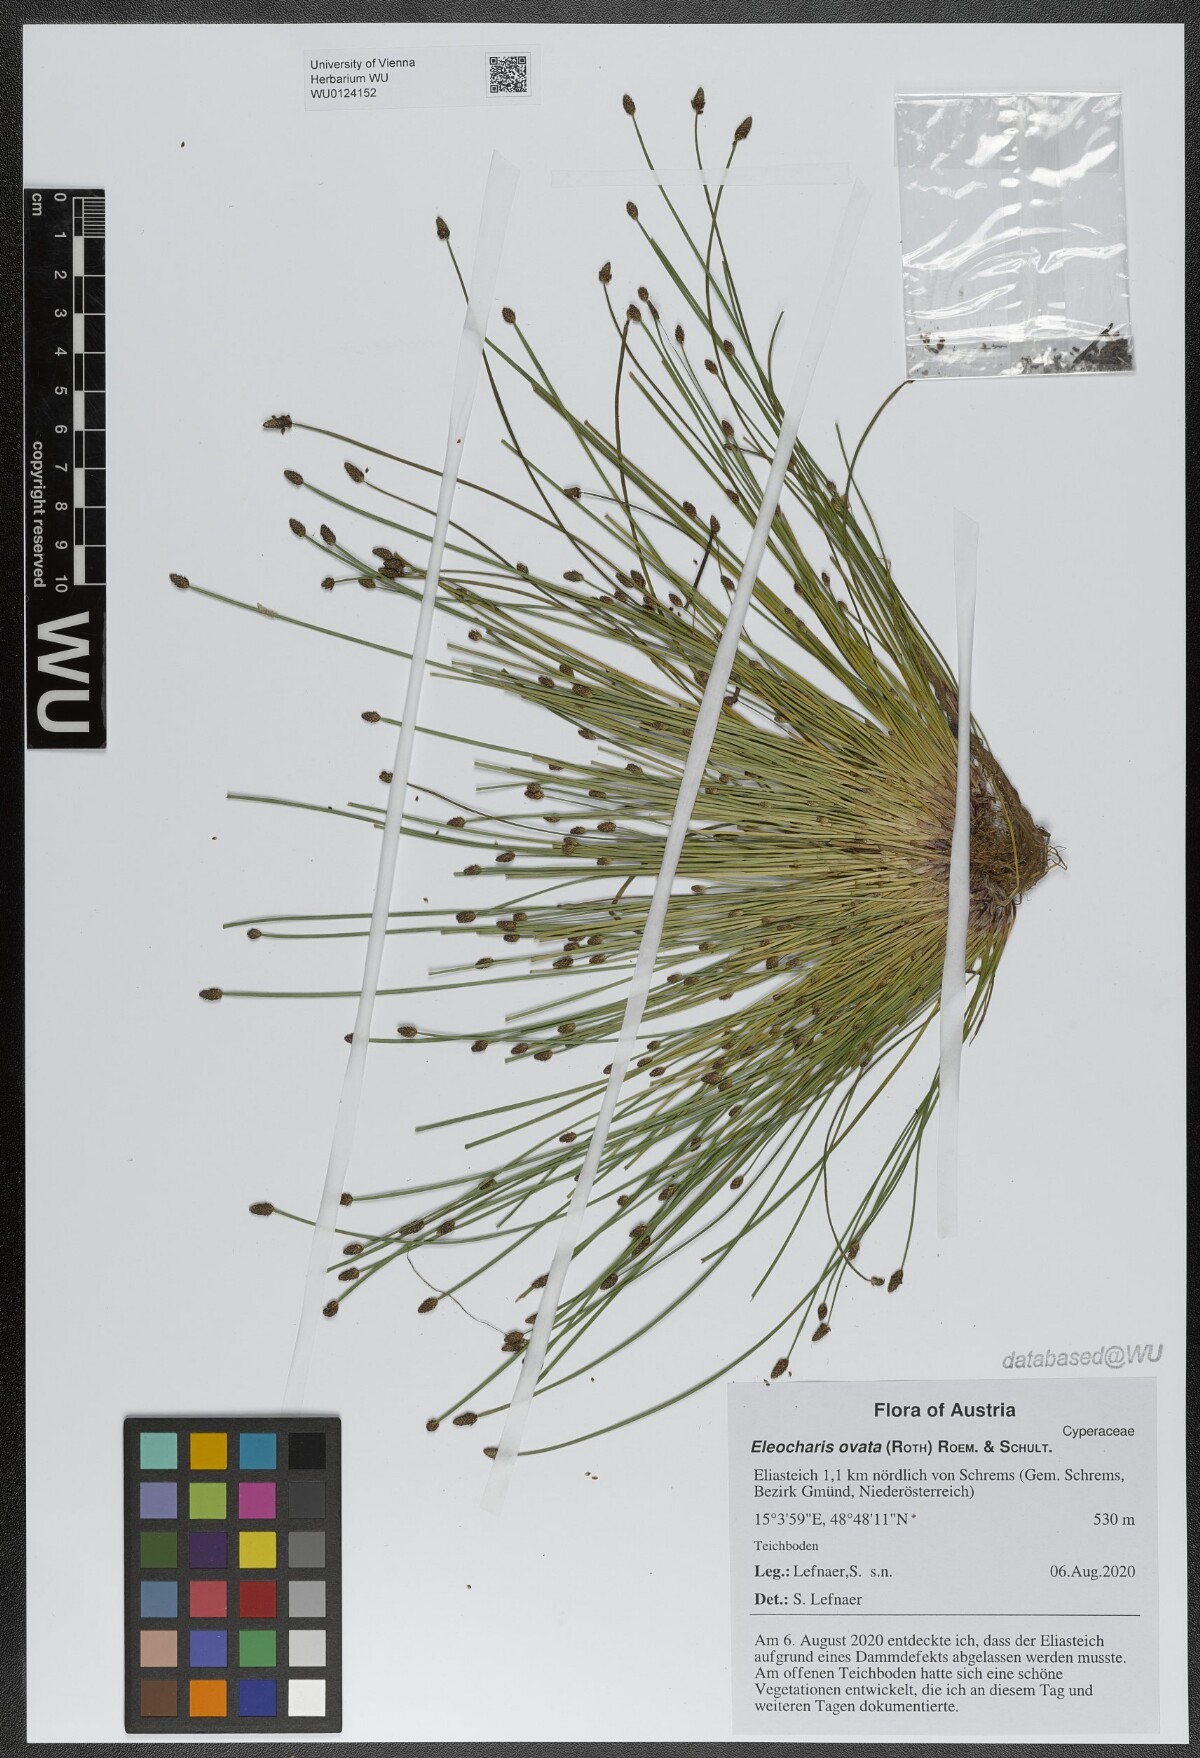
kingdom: Plantae
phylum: Tracheophyta
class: Liliopsida
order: Poales
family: Cyperaceae
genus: Eleocharis
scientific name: Eleocharis ovata
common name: Oval spike-rush
